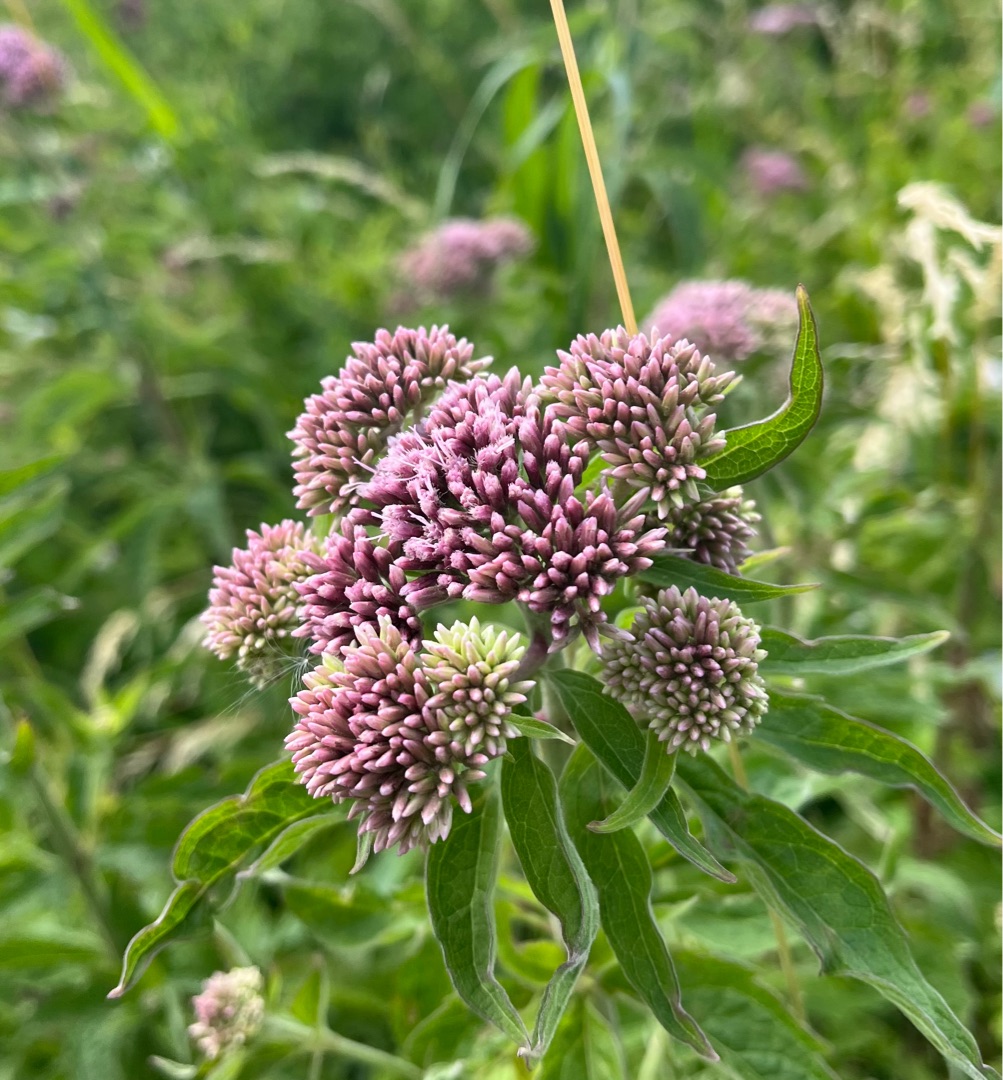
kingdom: Plantae
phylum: Tracheophyta
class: Magnoliopsida
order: Asterales
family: Asteraceae
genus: Eupatorium
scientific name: Eupatorium cannabinum
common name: Hjortetrøst
